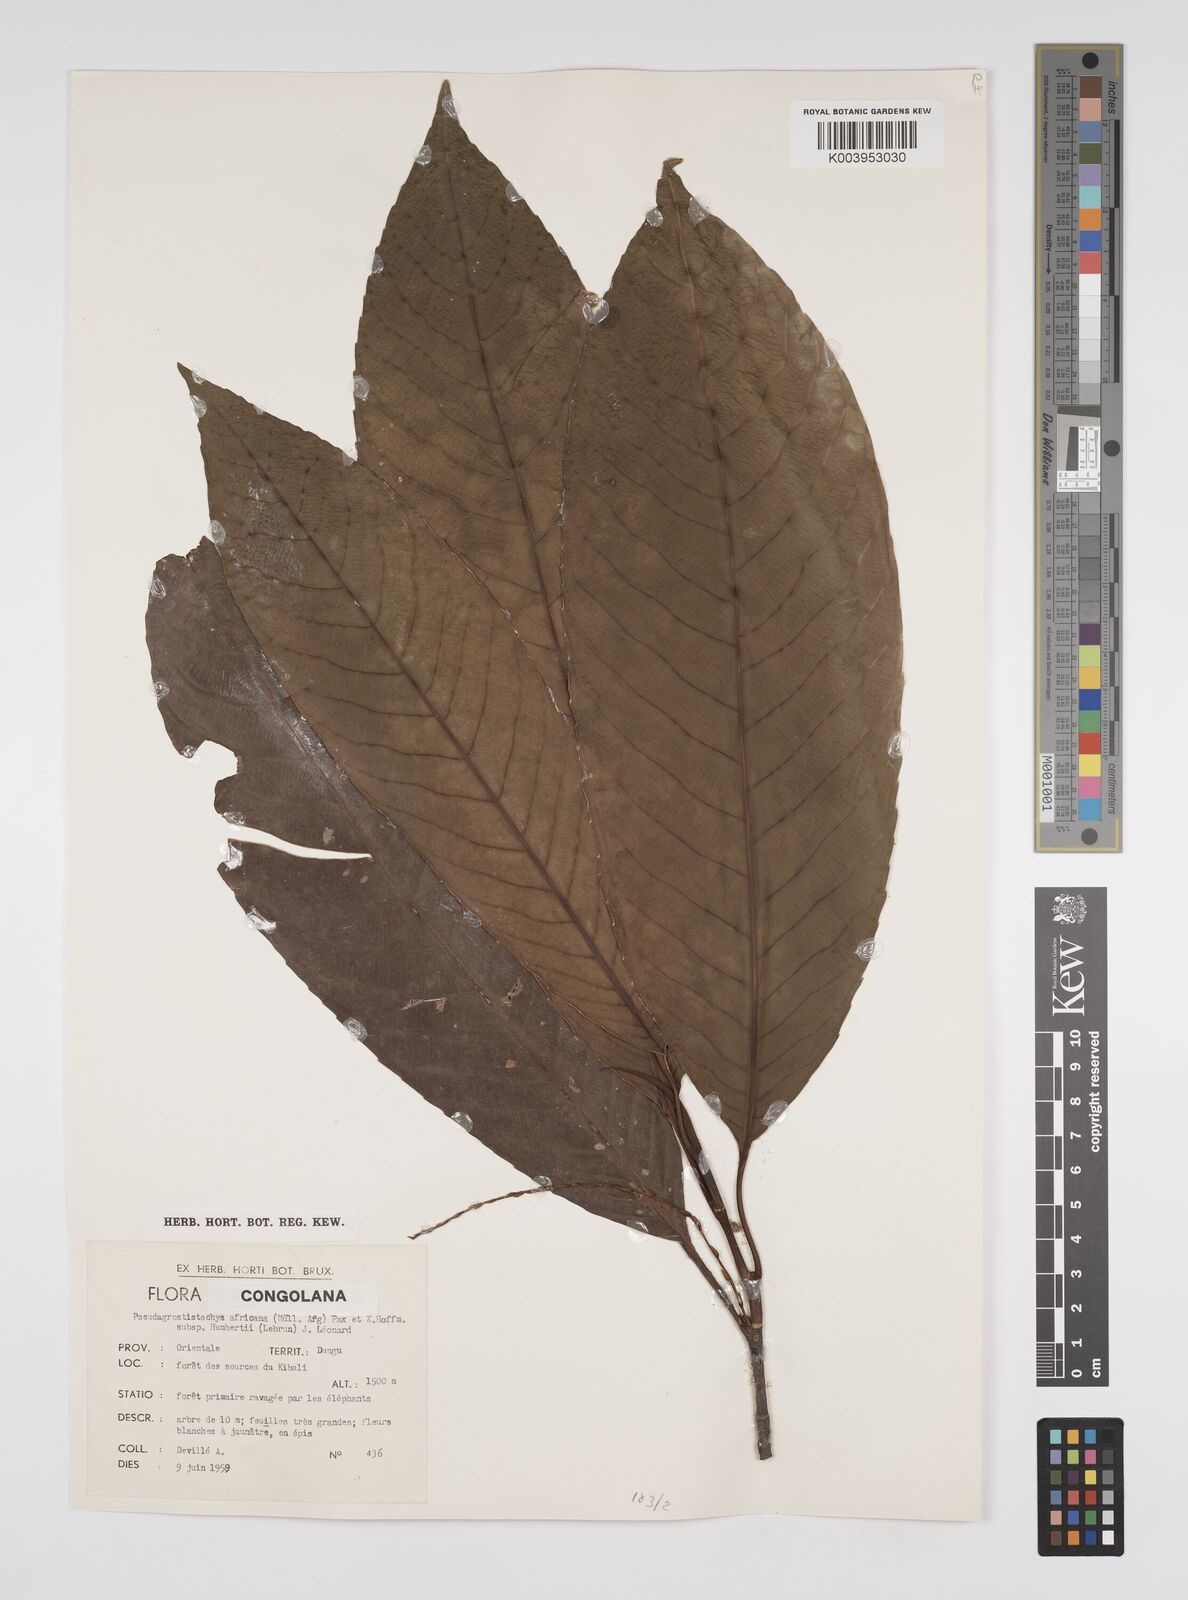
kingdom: Plantae
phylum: Tracheophyta
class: Magnoliopsida
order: Malpighiales
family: Euphorbiaceae
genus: Pseudagrostistachys
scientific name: Pseudagrostistachys africana
